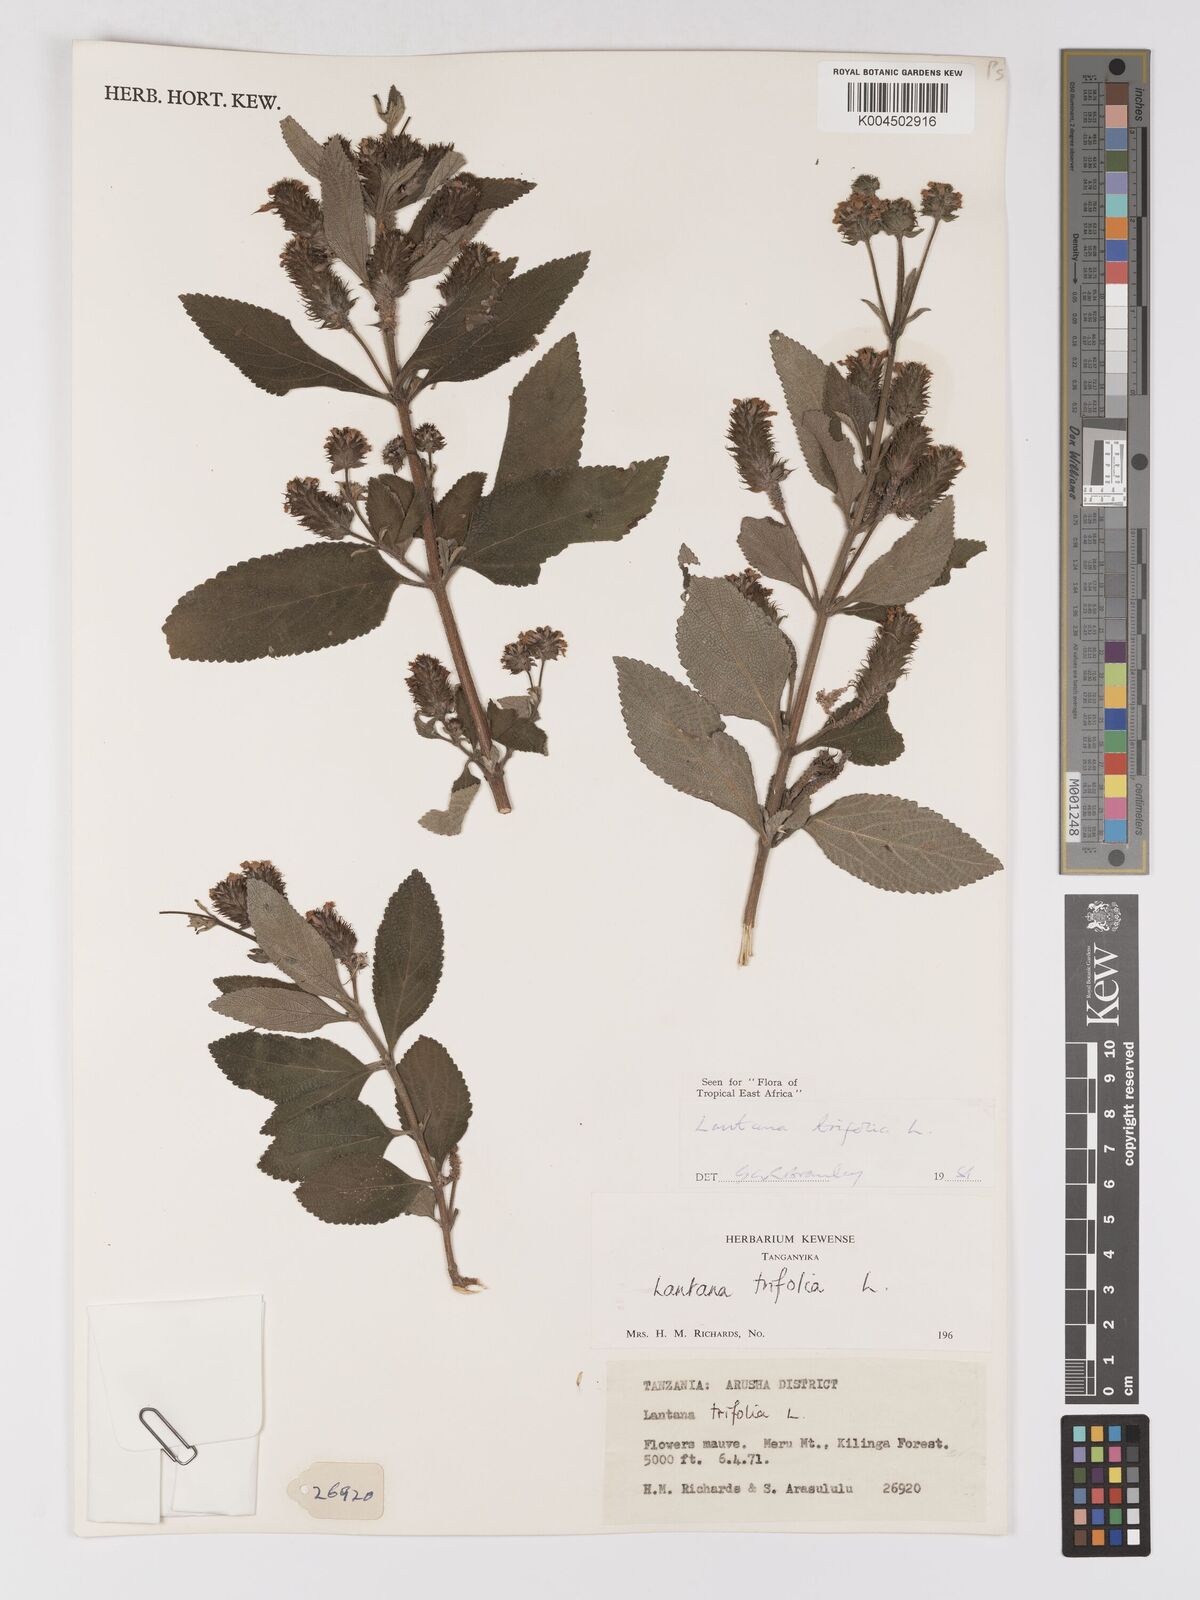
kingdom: Plantae
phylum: Tracheophyta
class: Magnoliopsida
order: Lamiales
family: Verbenaceae
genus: Lantana
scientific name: Lantana trifolia
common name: Sweet-sage
